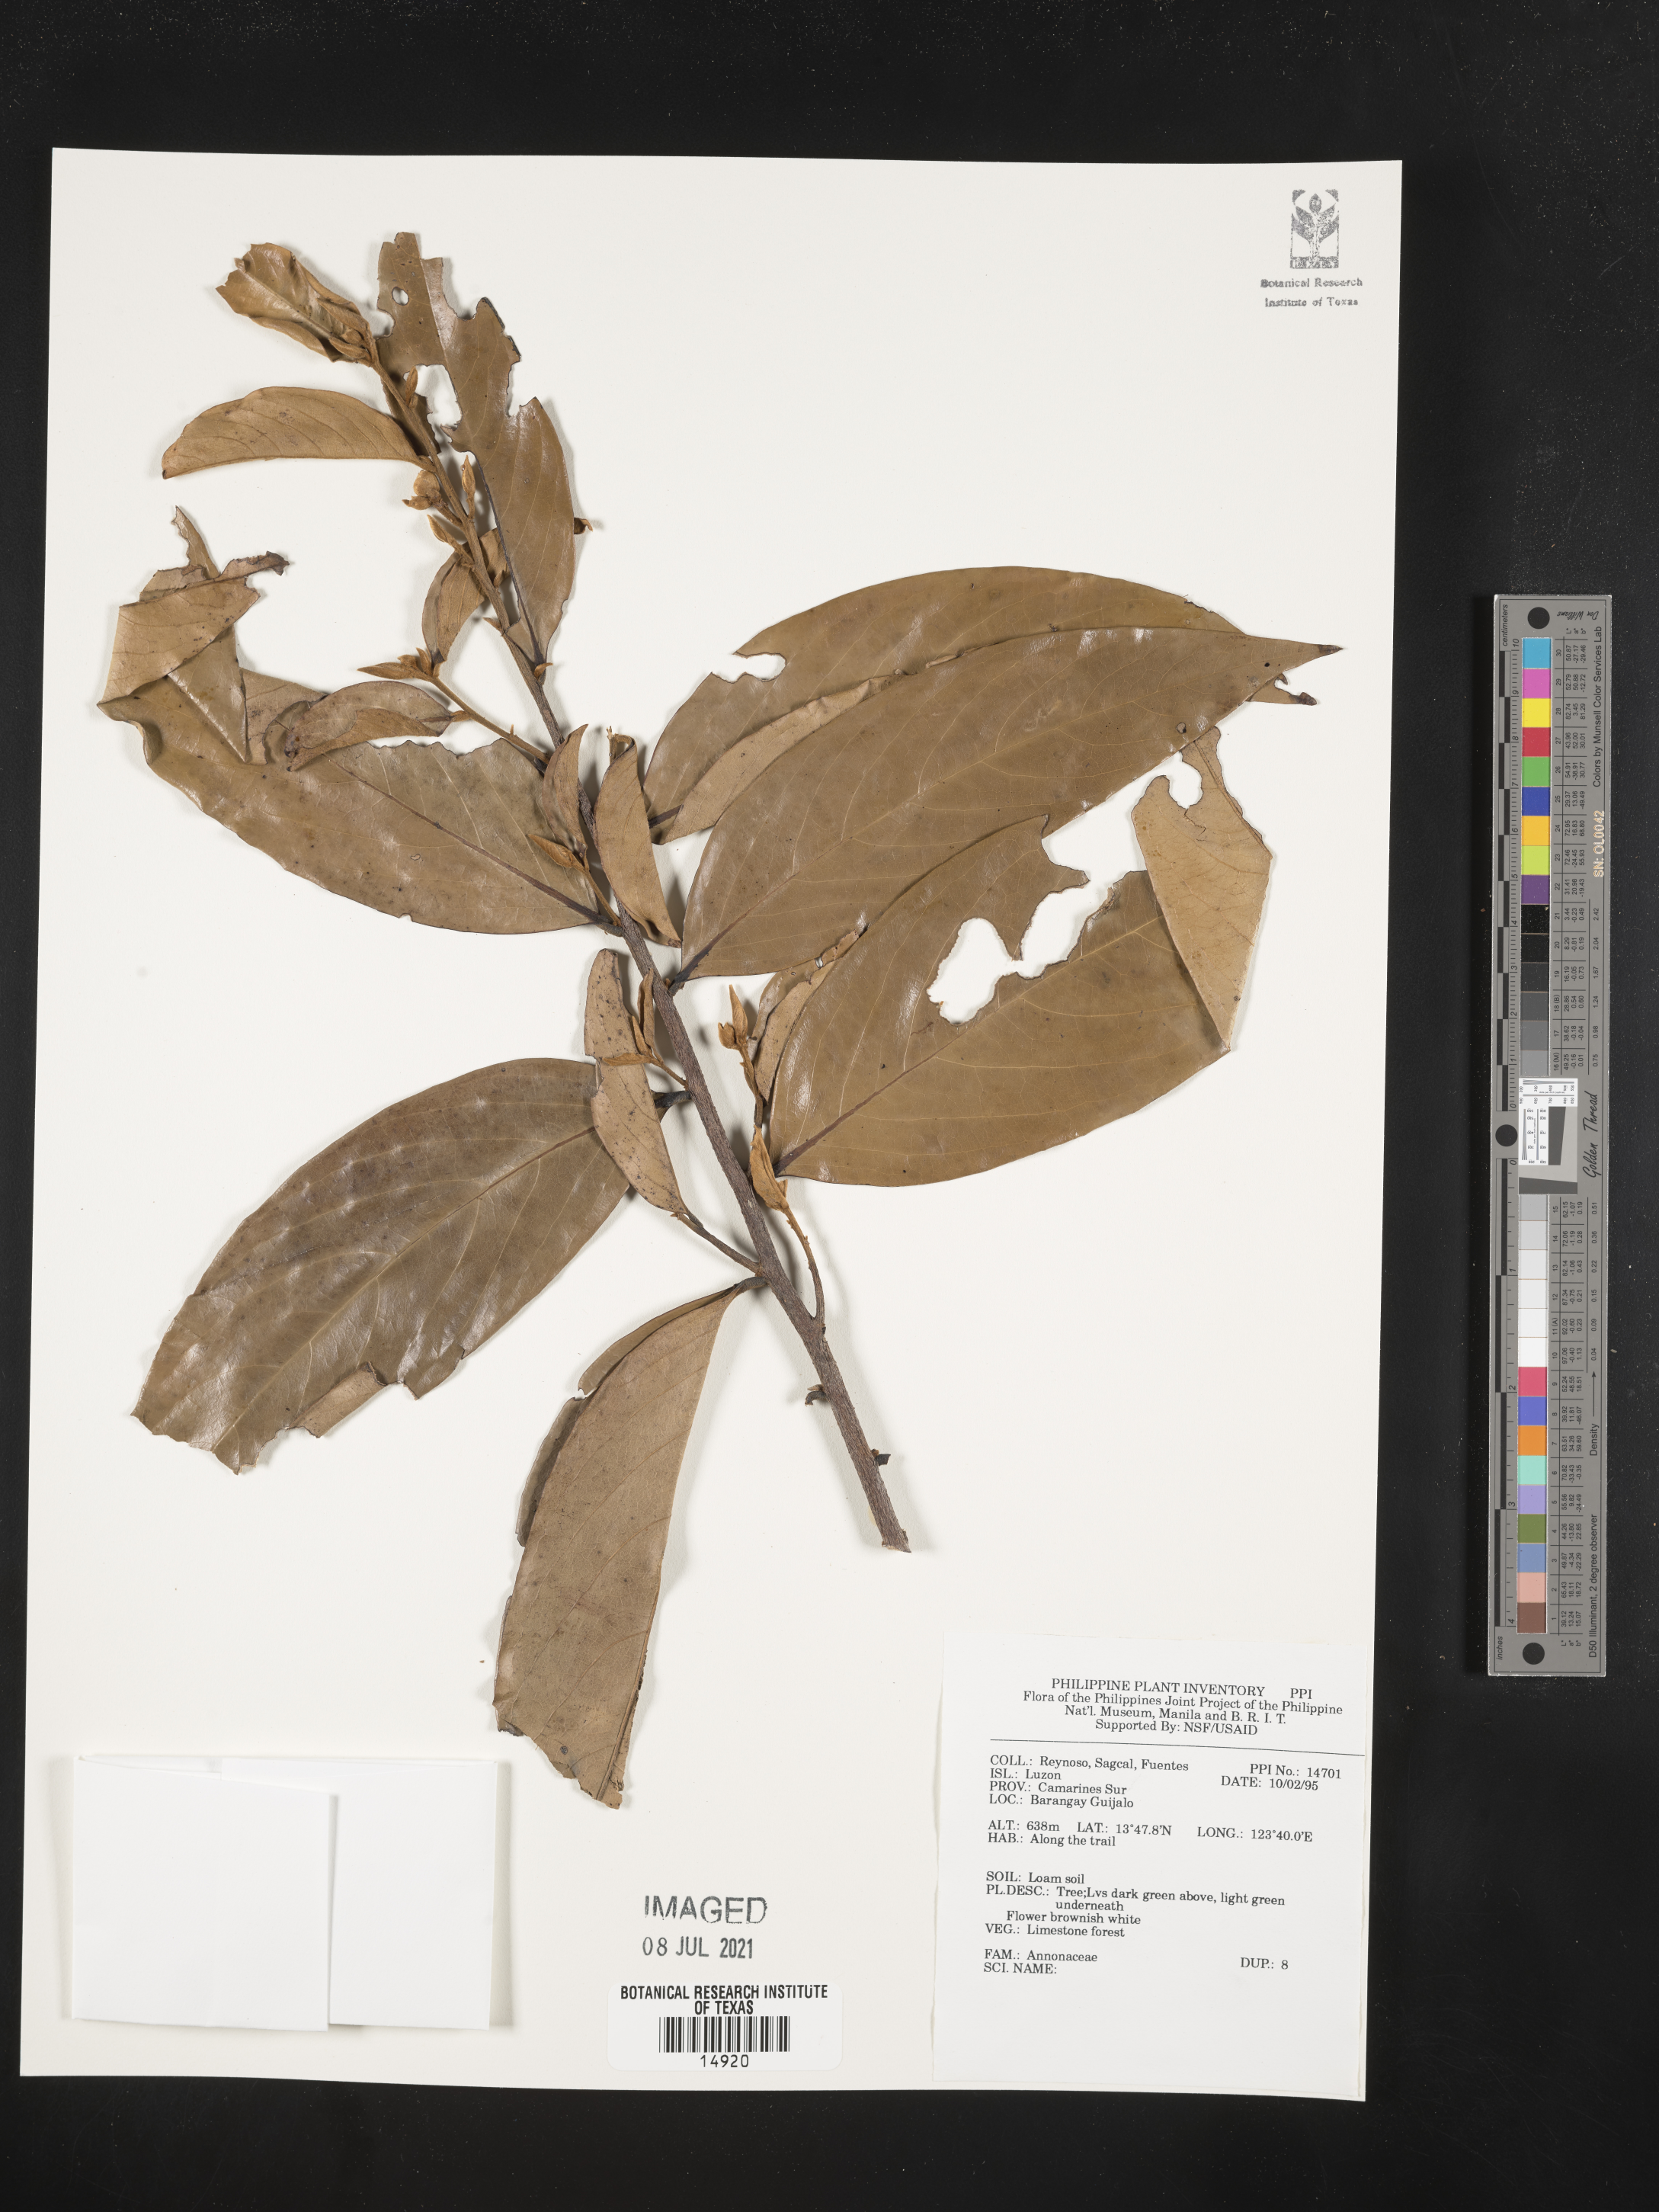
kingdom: Plantae
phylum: Tracheophyta
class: Magnoliopsida
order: Magnoliales
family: Annonaceae
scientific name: Annonaceae
